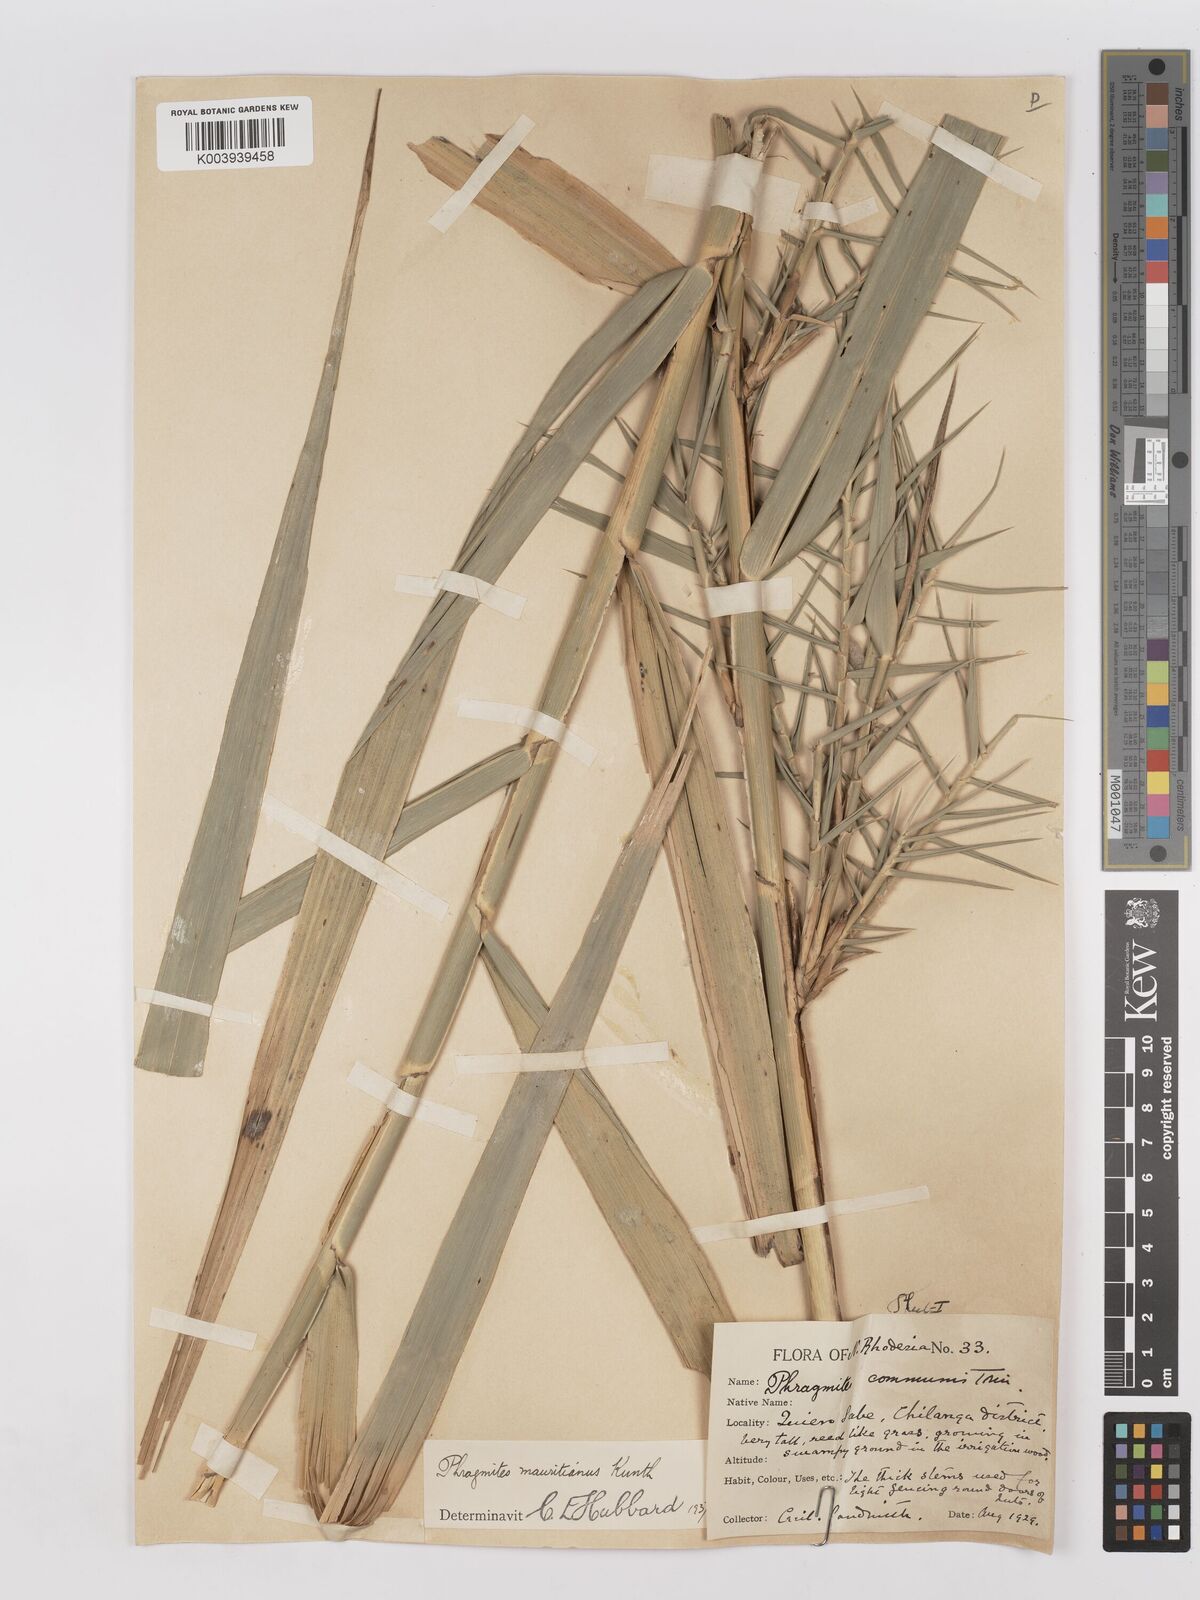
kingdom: Plantae
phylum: Tracheophyta
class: Liliopsida
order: Poales
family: Poaceae
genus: Phragmites
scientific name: Phragmites mauritianus
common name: Reed grass
